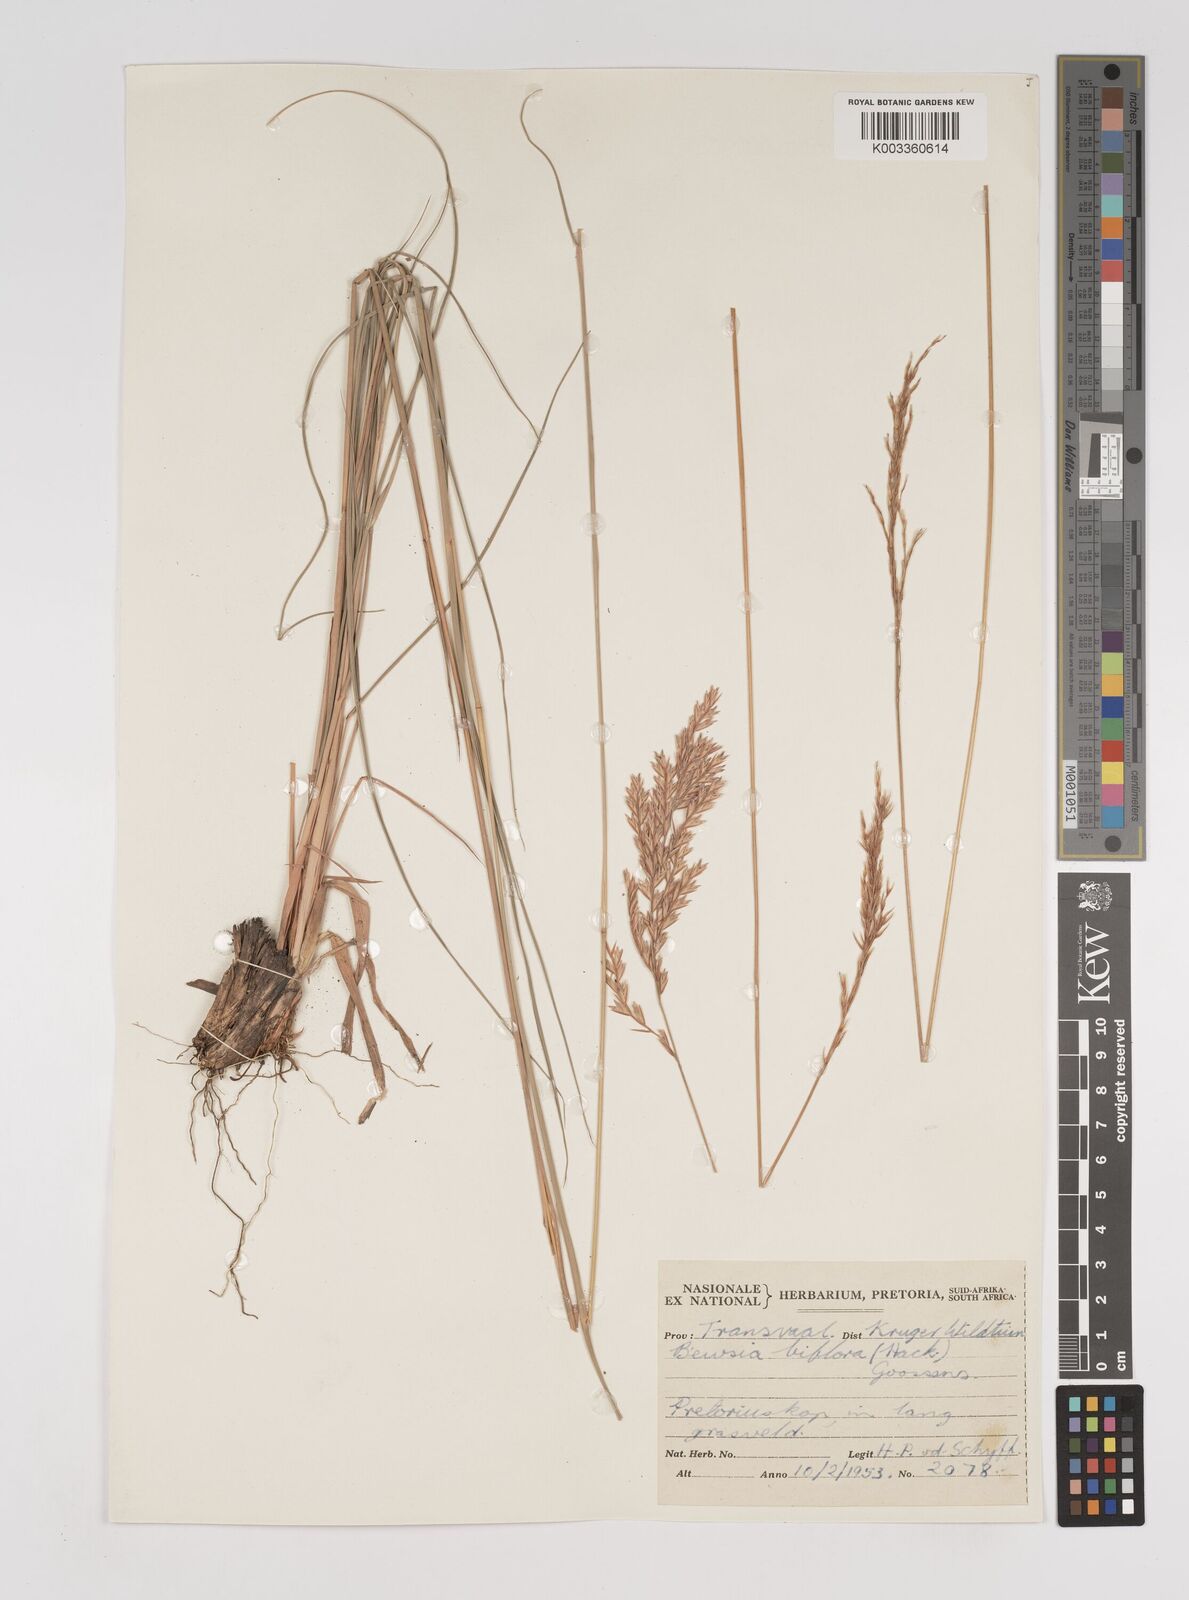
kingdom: Plantae
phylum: Tracheophyta
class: Liliopsida
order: Poales
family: Poaceae
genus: Bewsia
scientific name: Bewsia biflora
